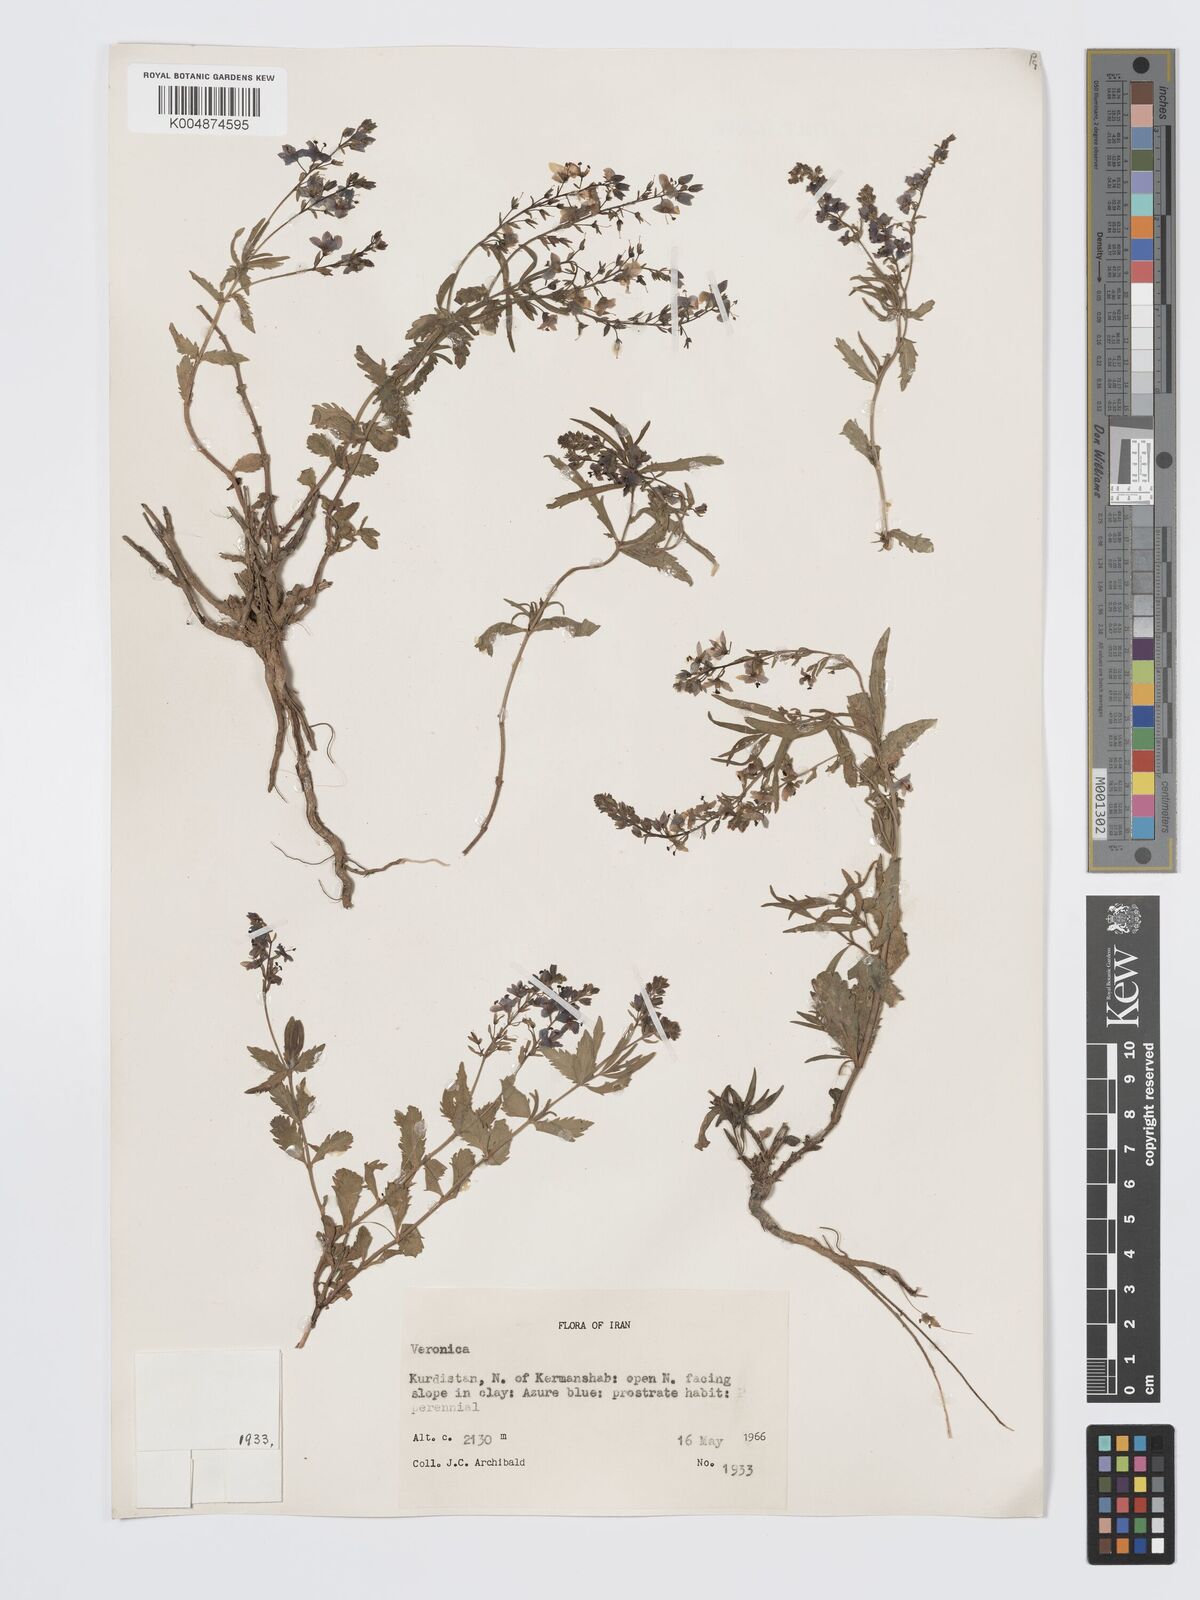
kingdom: Plantae
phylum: Tracheophyta
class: Magnoliopsida
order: Lamiales
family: Plantaginaceae
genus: Veronica
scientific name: Veronica
